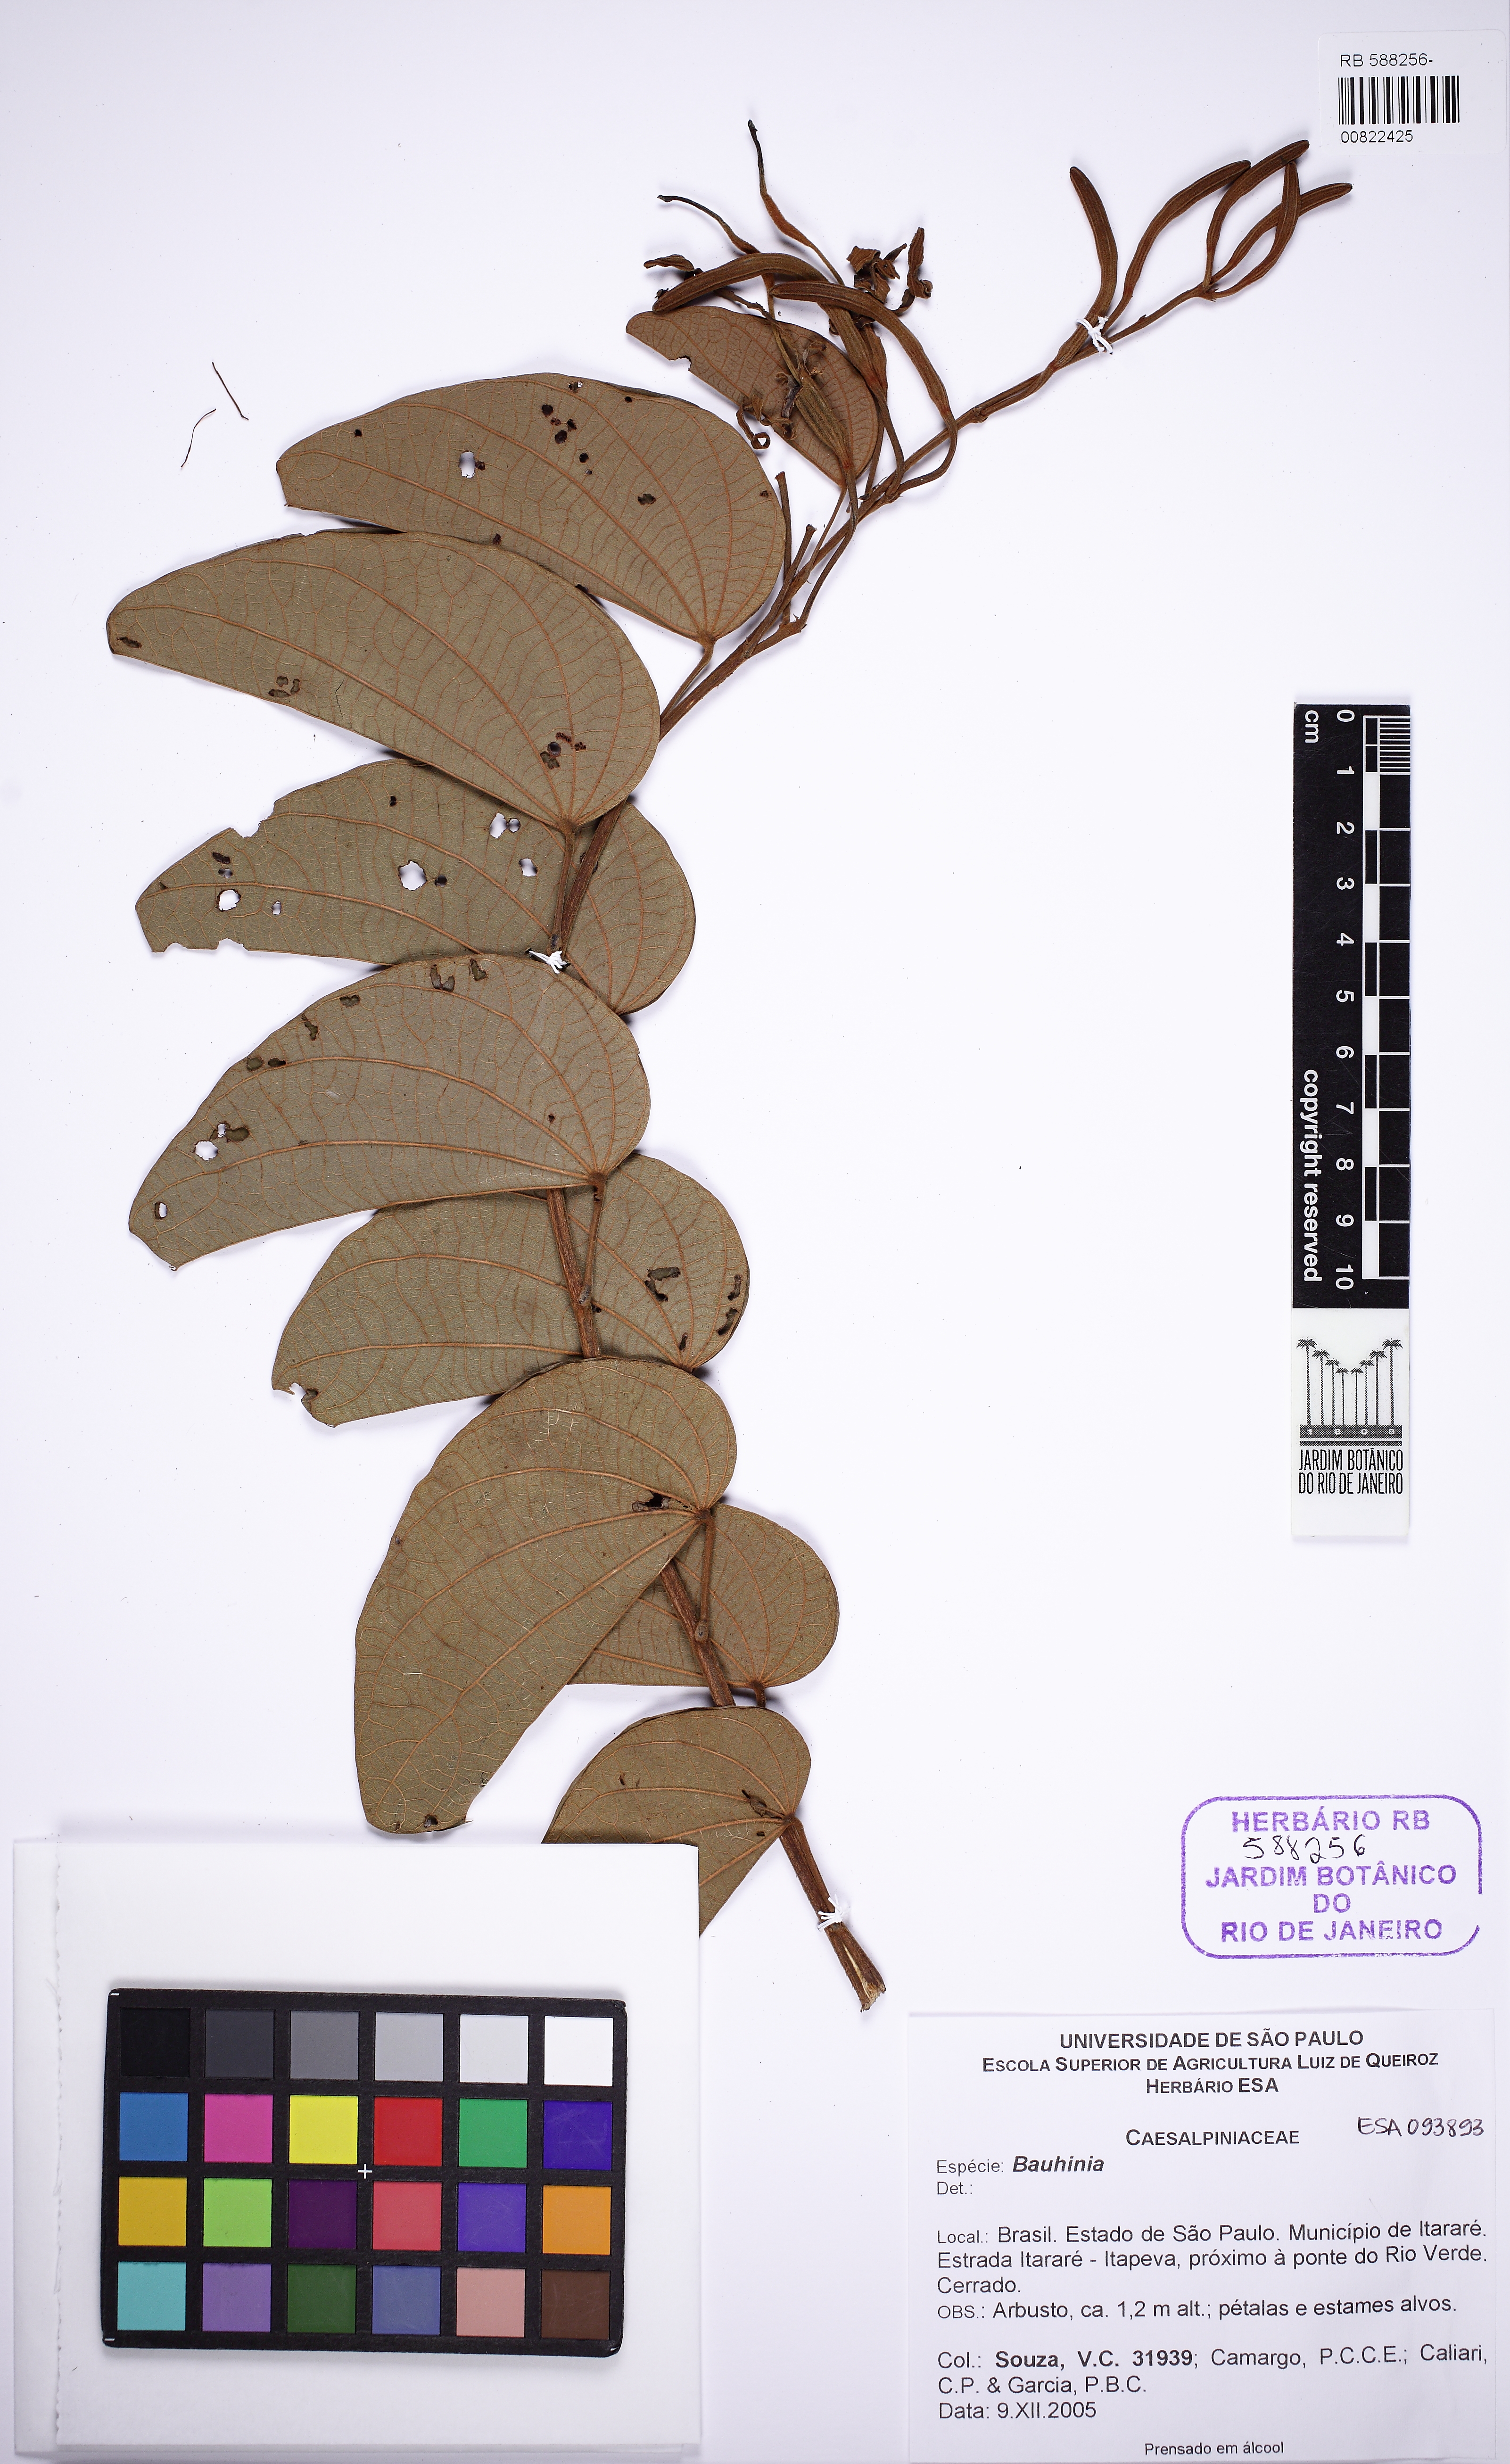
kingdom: Plantae
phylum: Tracheophyta
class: Magnoliopsida
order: Fabales
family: Fabaceae
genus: Bauhinia
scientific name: Bauhinia
